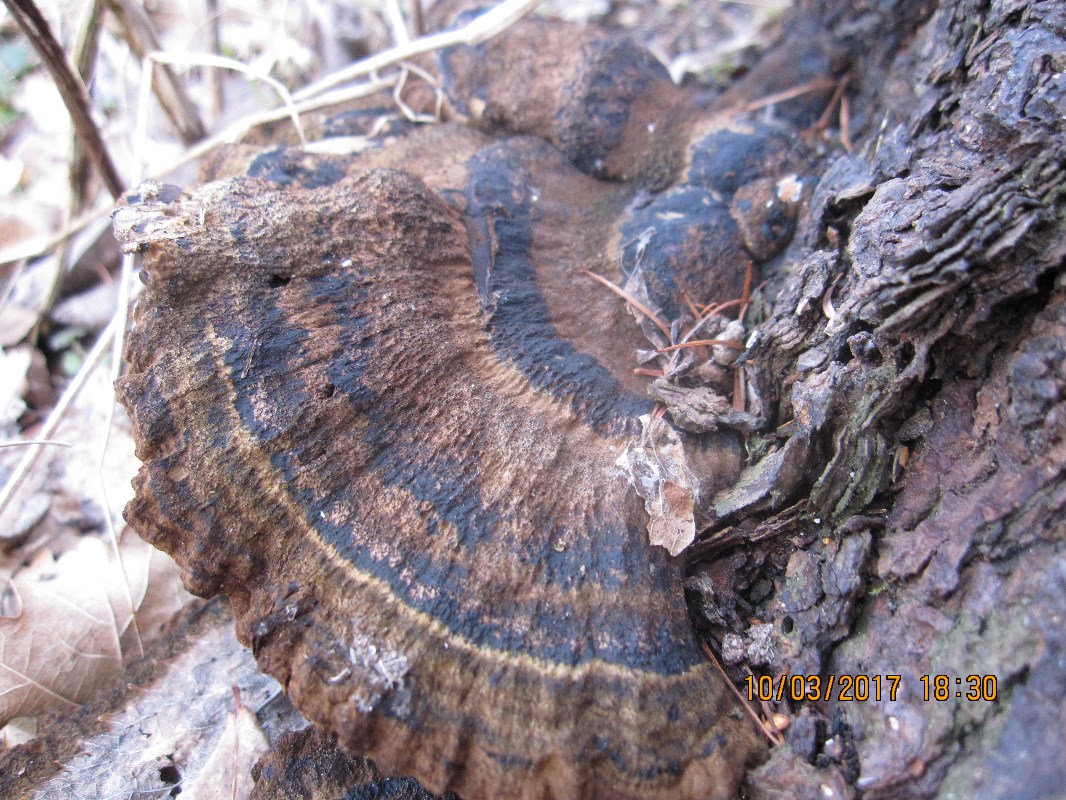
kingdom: Fungi
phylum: Basidiomycota
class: Agaricomycetes
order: Polyporales
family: Ischnodermataceae
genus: Ischnoderma
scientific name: Ischnoderma benzoinum
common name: gran-tjæreporesvamp
